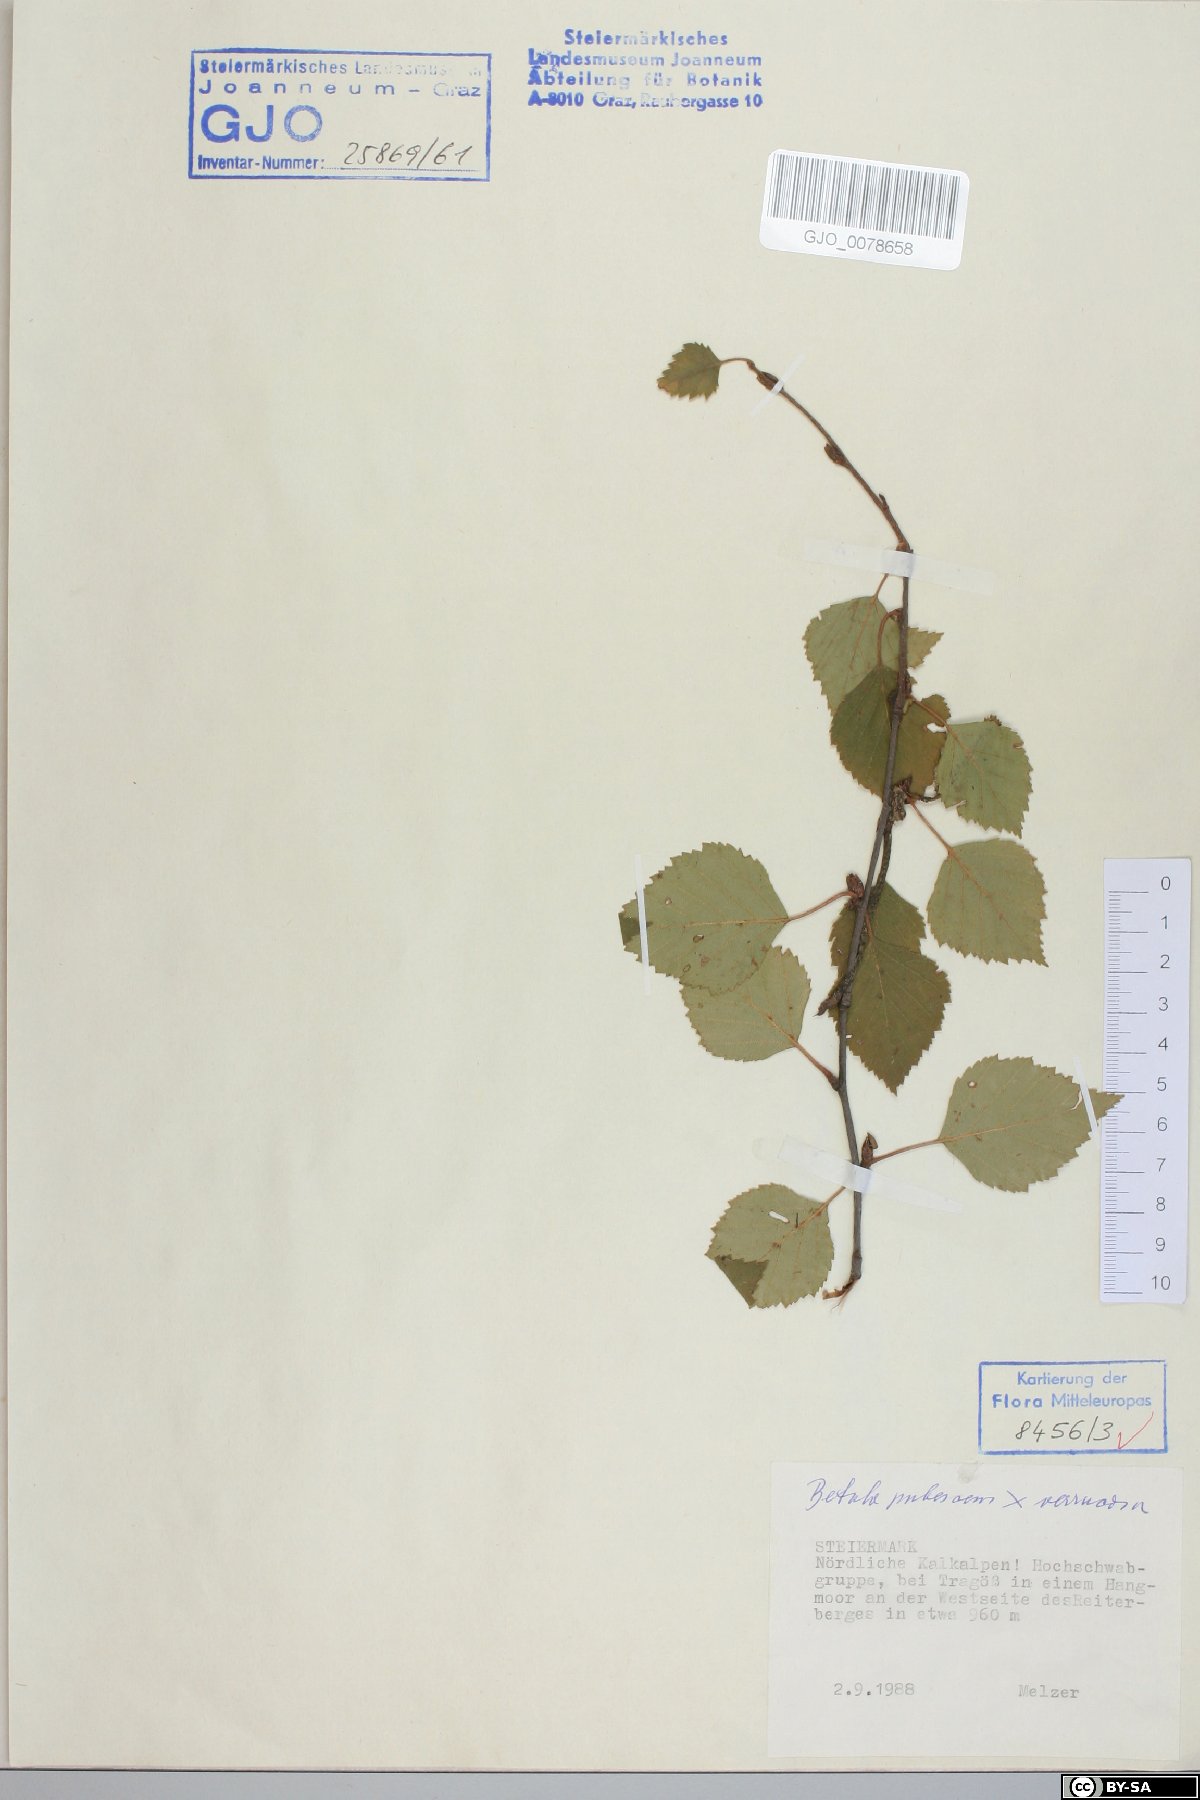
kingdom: Plantae
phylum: Tracheophyta
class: Magnoliopsida
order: Fagales
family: Betulaceae
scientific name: Betulaceae
